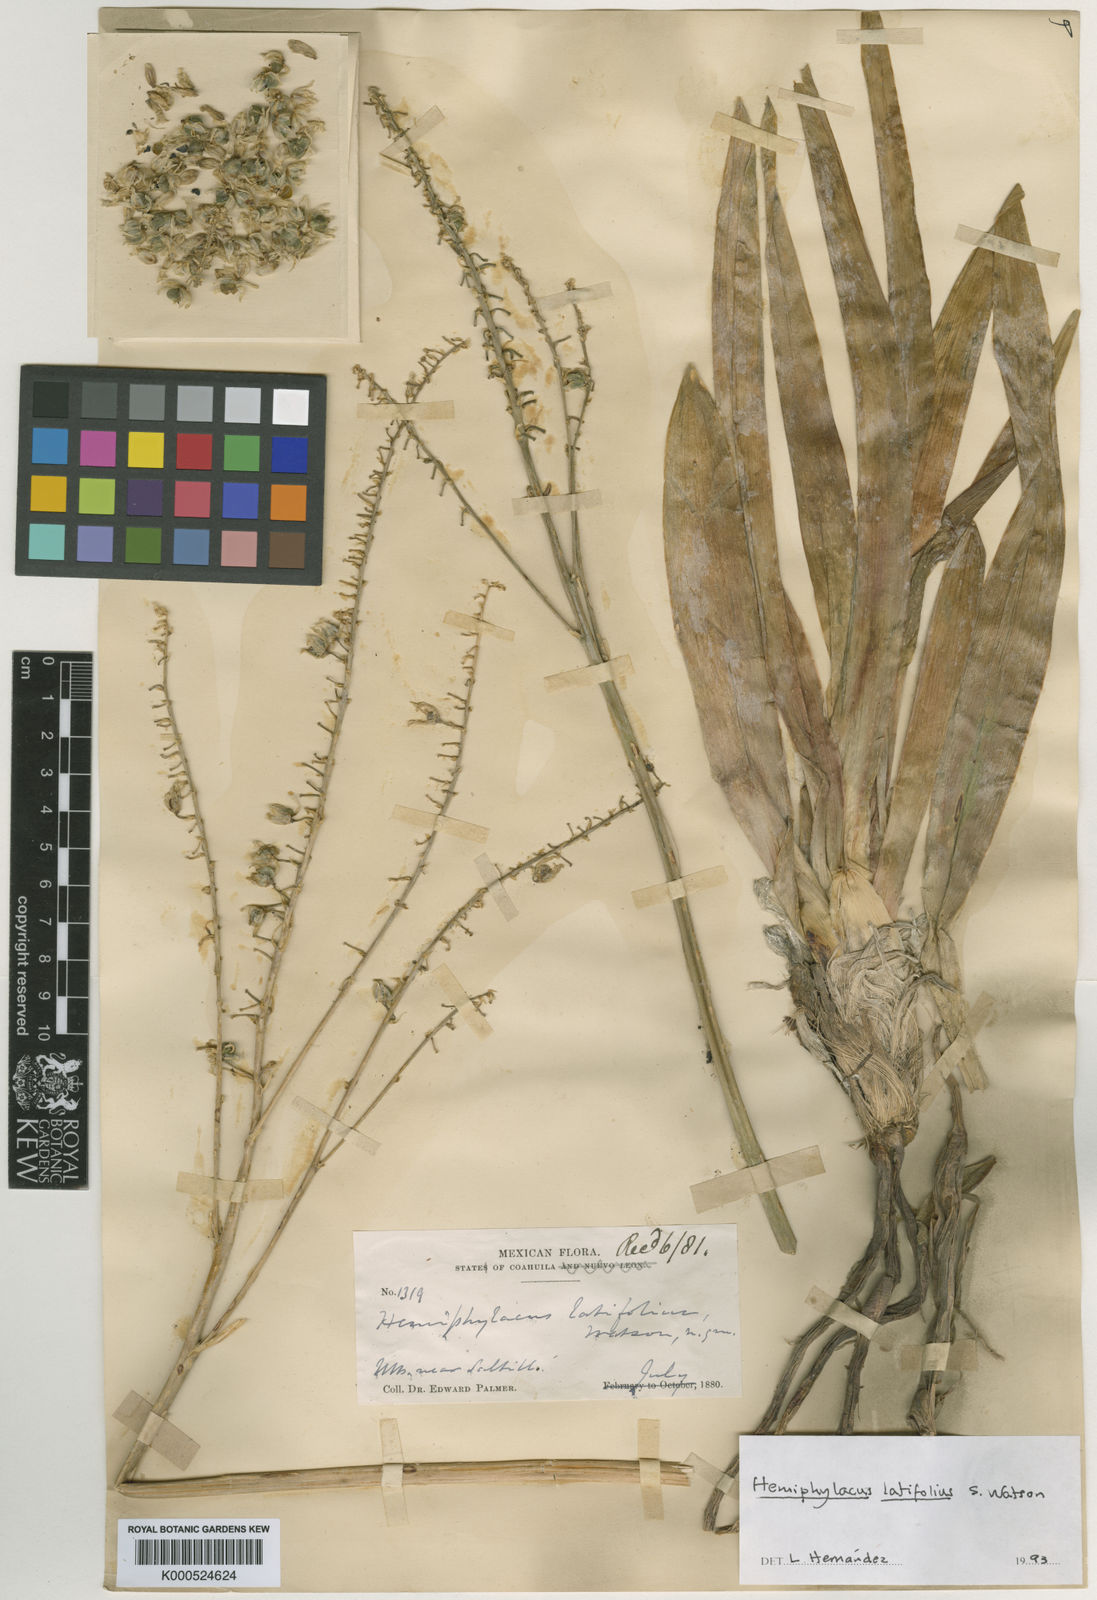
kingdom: Plantae
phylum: Tracheophyta
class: Liliopsida
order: Asparagales
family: Asparagaceae
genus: Hemiphylacus
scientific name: Hemiphylacus latifolius
